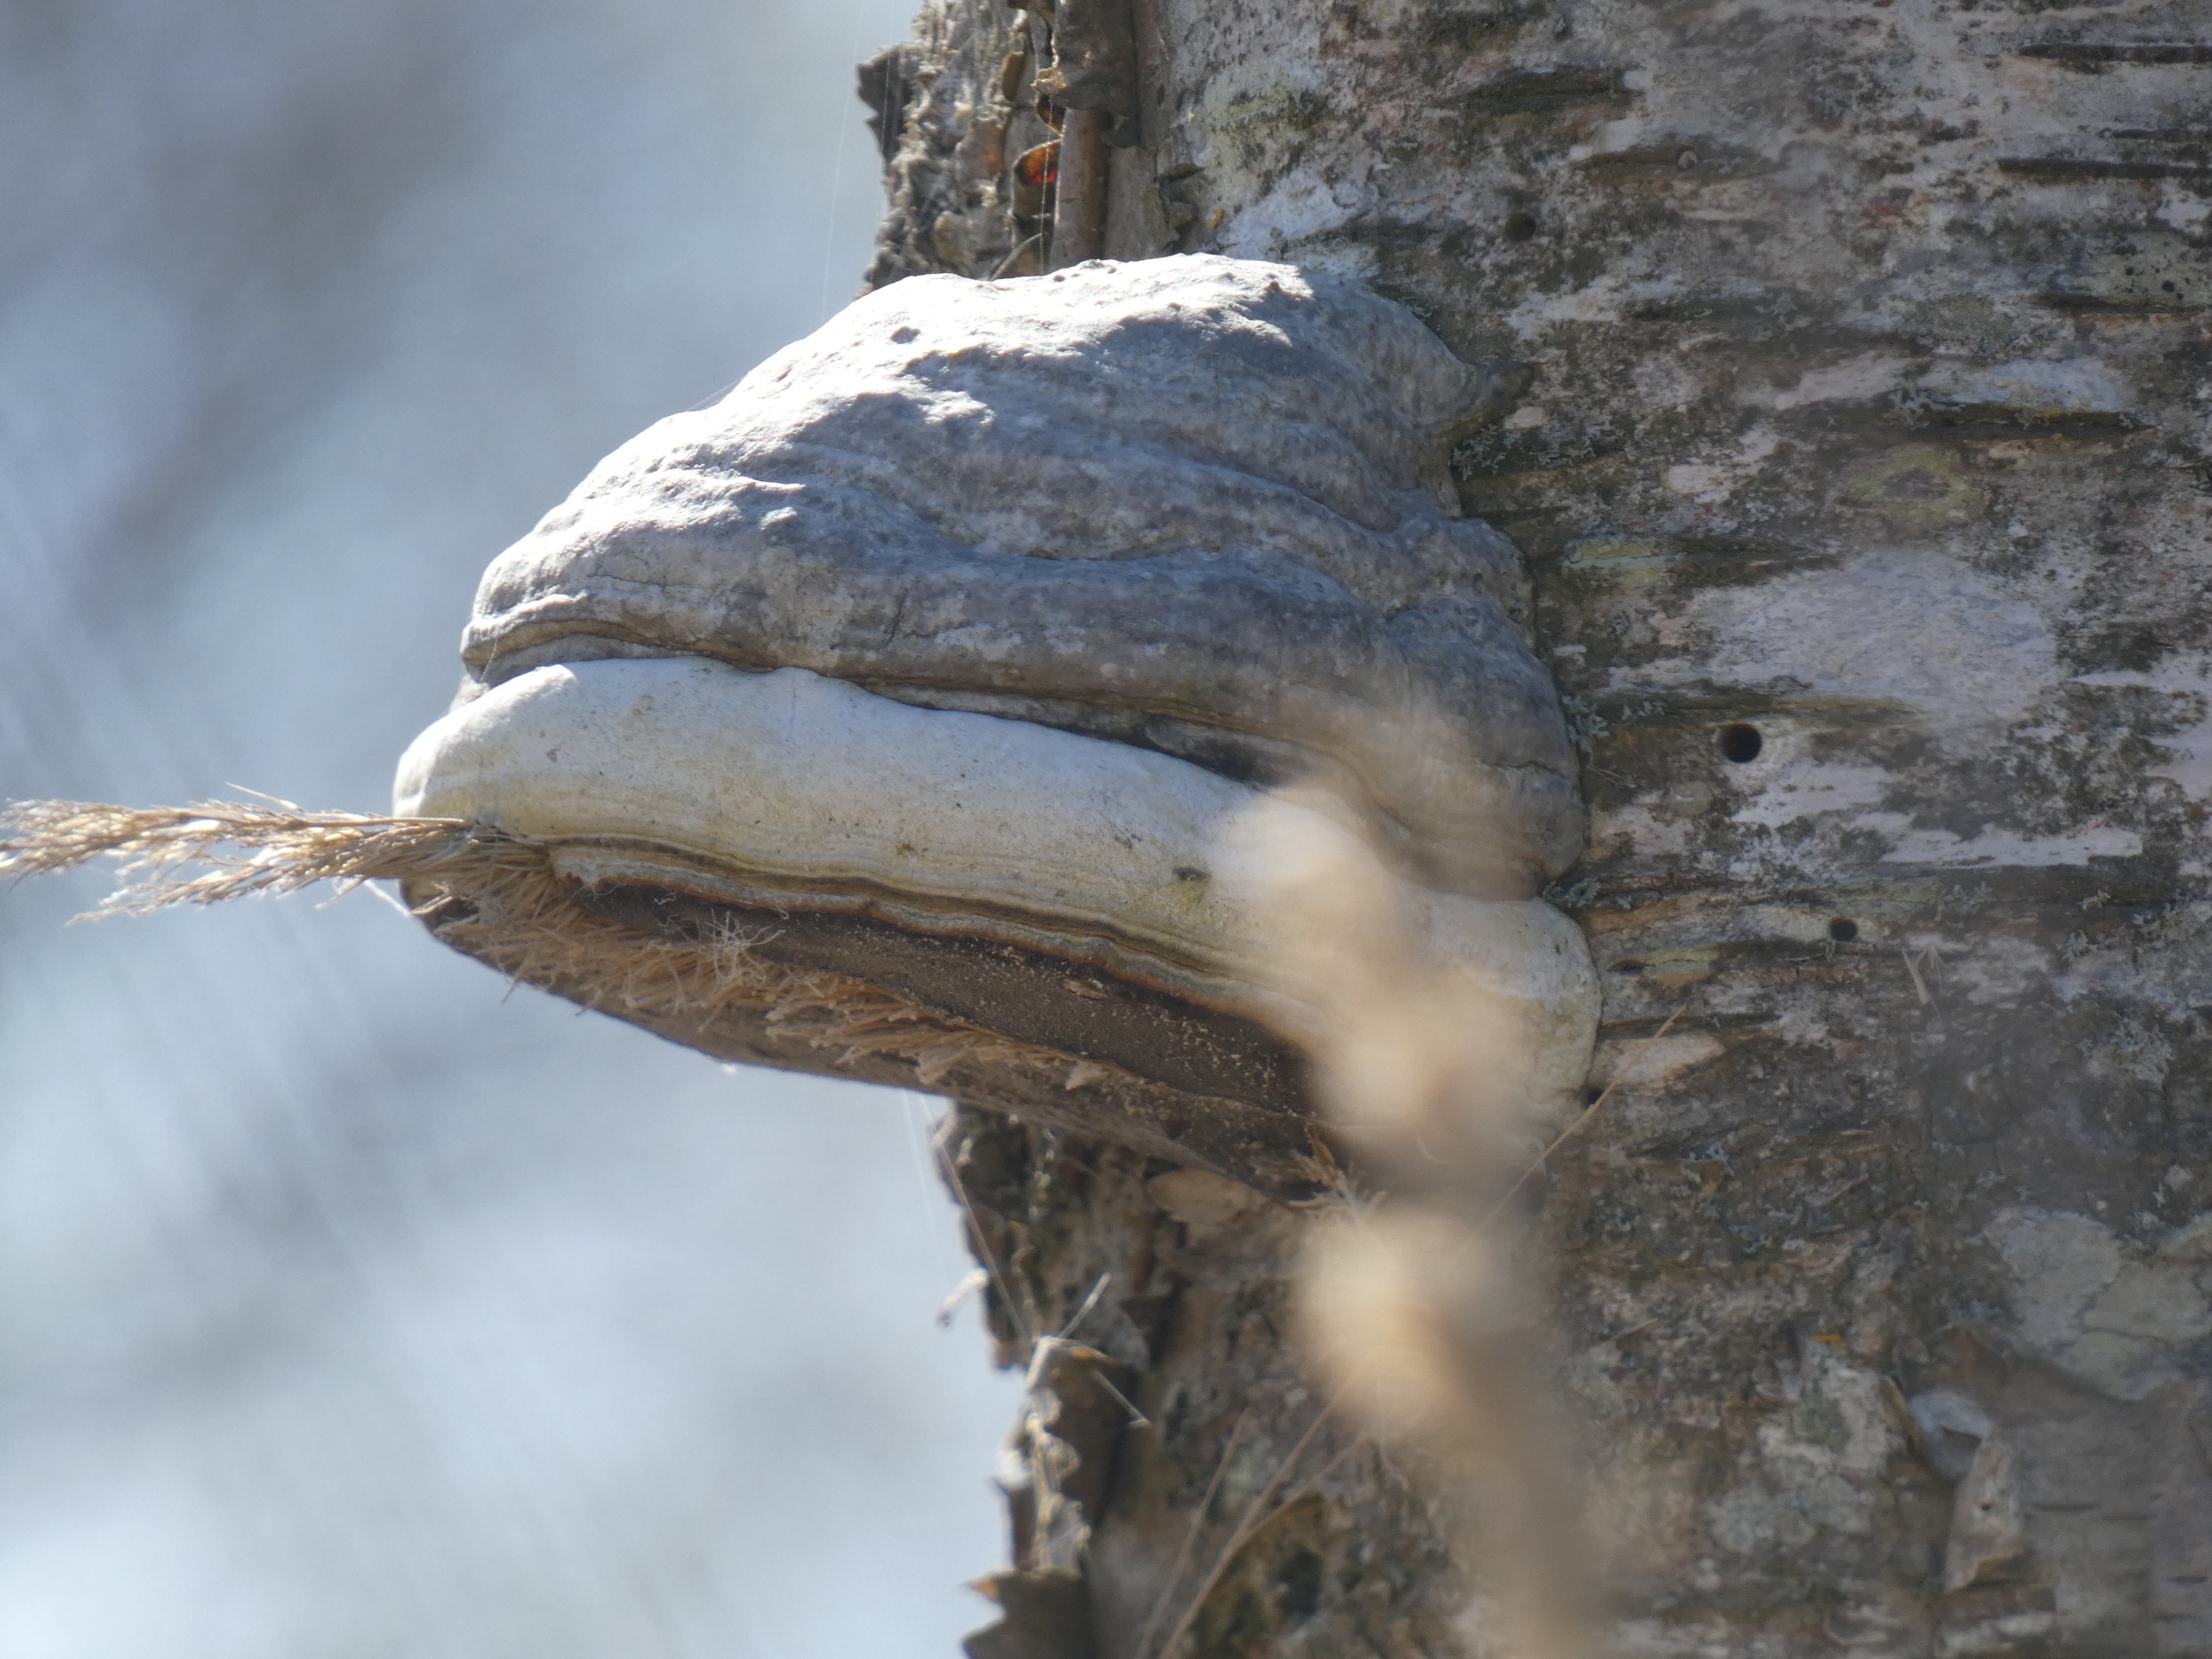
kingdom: Fungi
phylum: Basidiomycota
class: Agaricomycetes
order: Polyporales
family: Polyporaceae
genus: Fomes
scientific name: Fomes fomentarius
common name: Tøndersvamp
